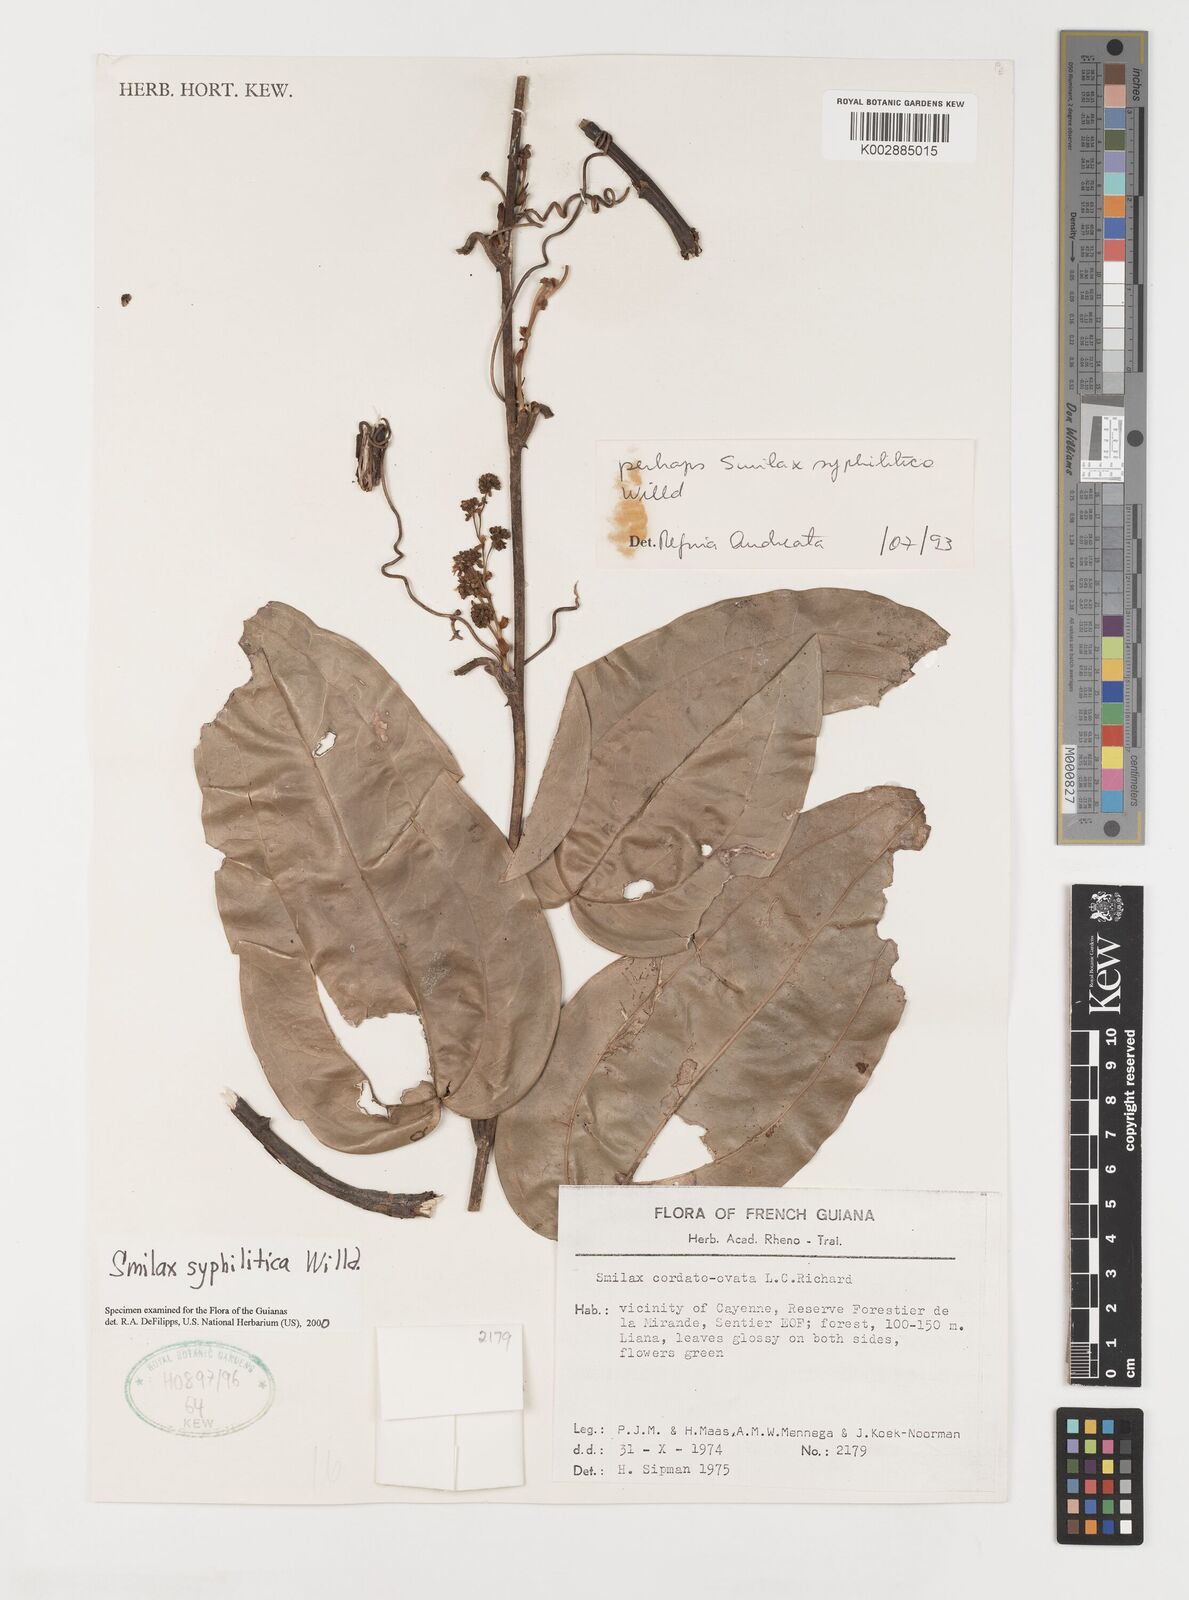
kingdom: Plantae
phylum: Tracheophyta
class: Liliopsida
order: Liliales
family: Smilacaceae
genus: Smilax
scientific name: Smilax schomburgkiana
